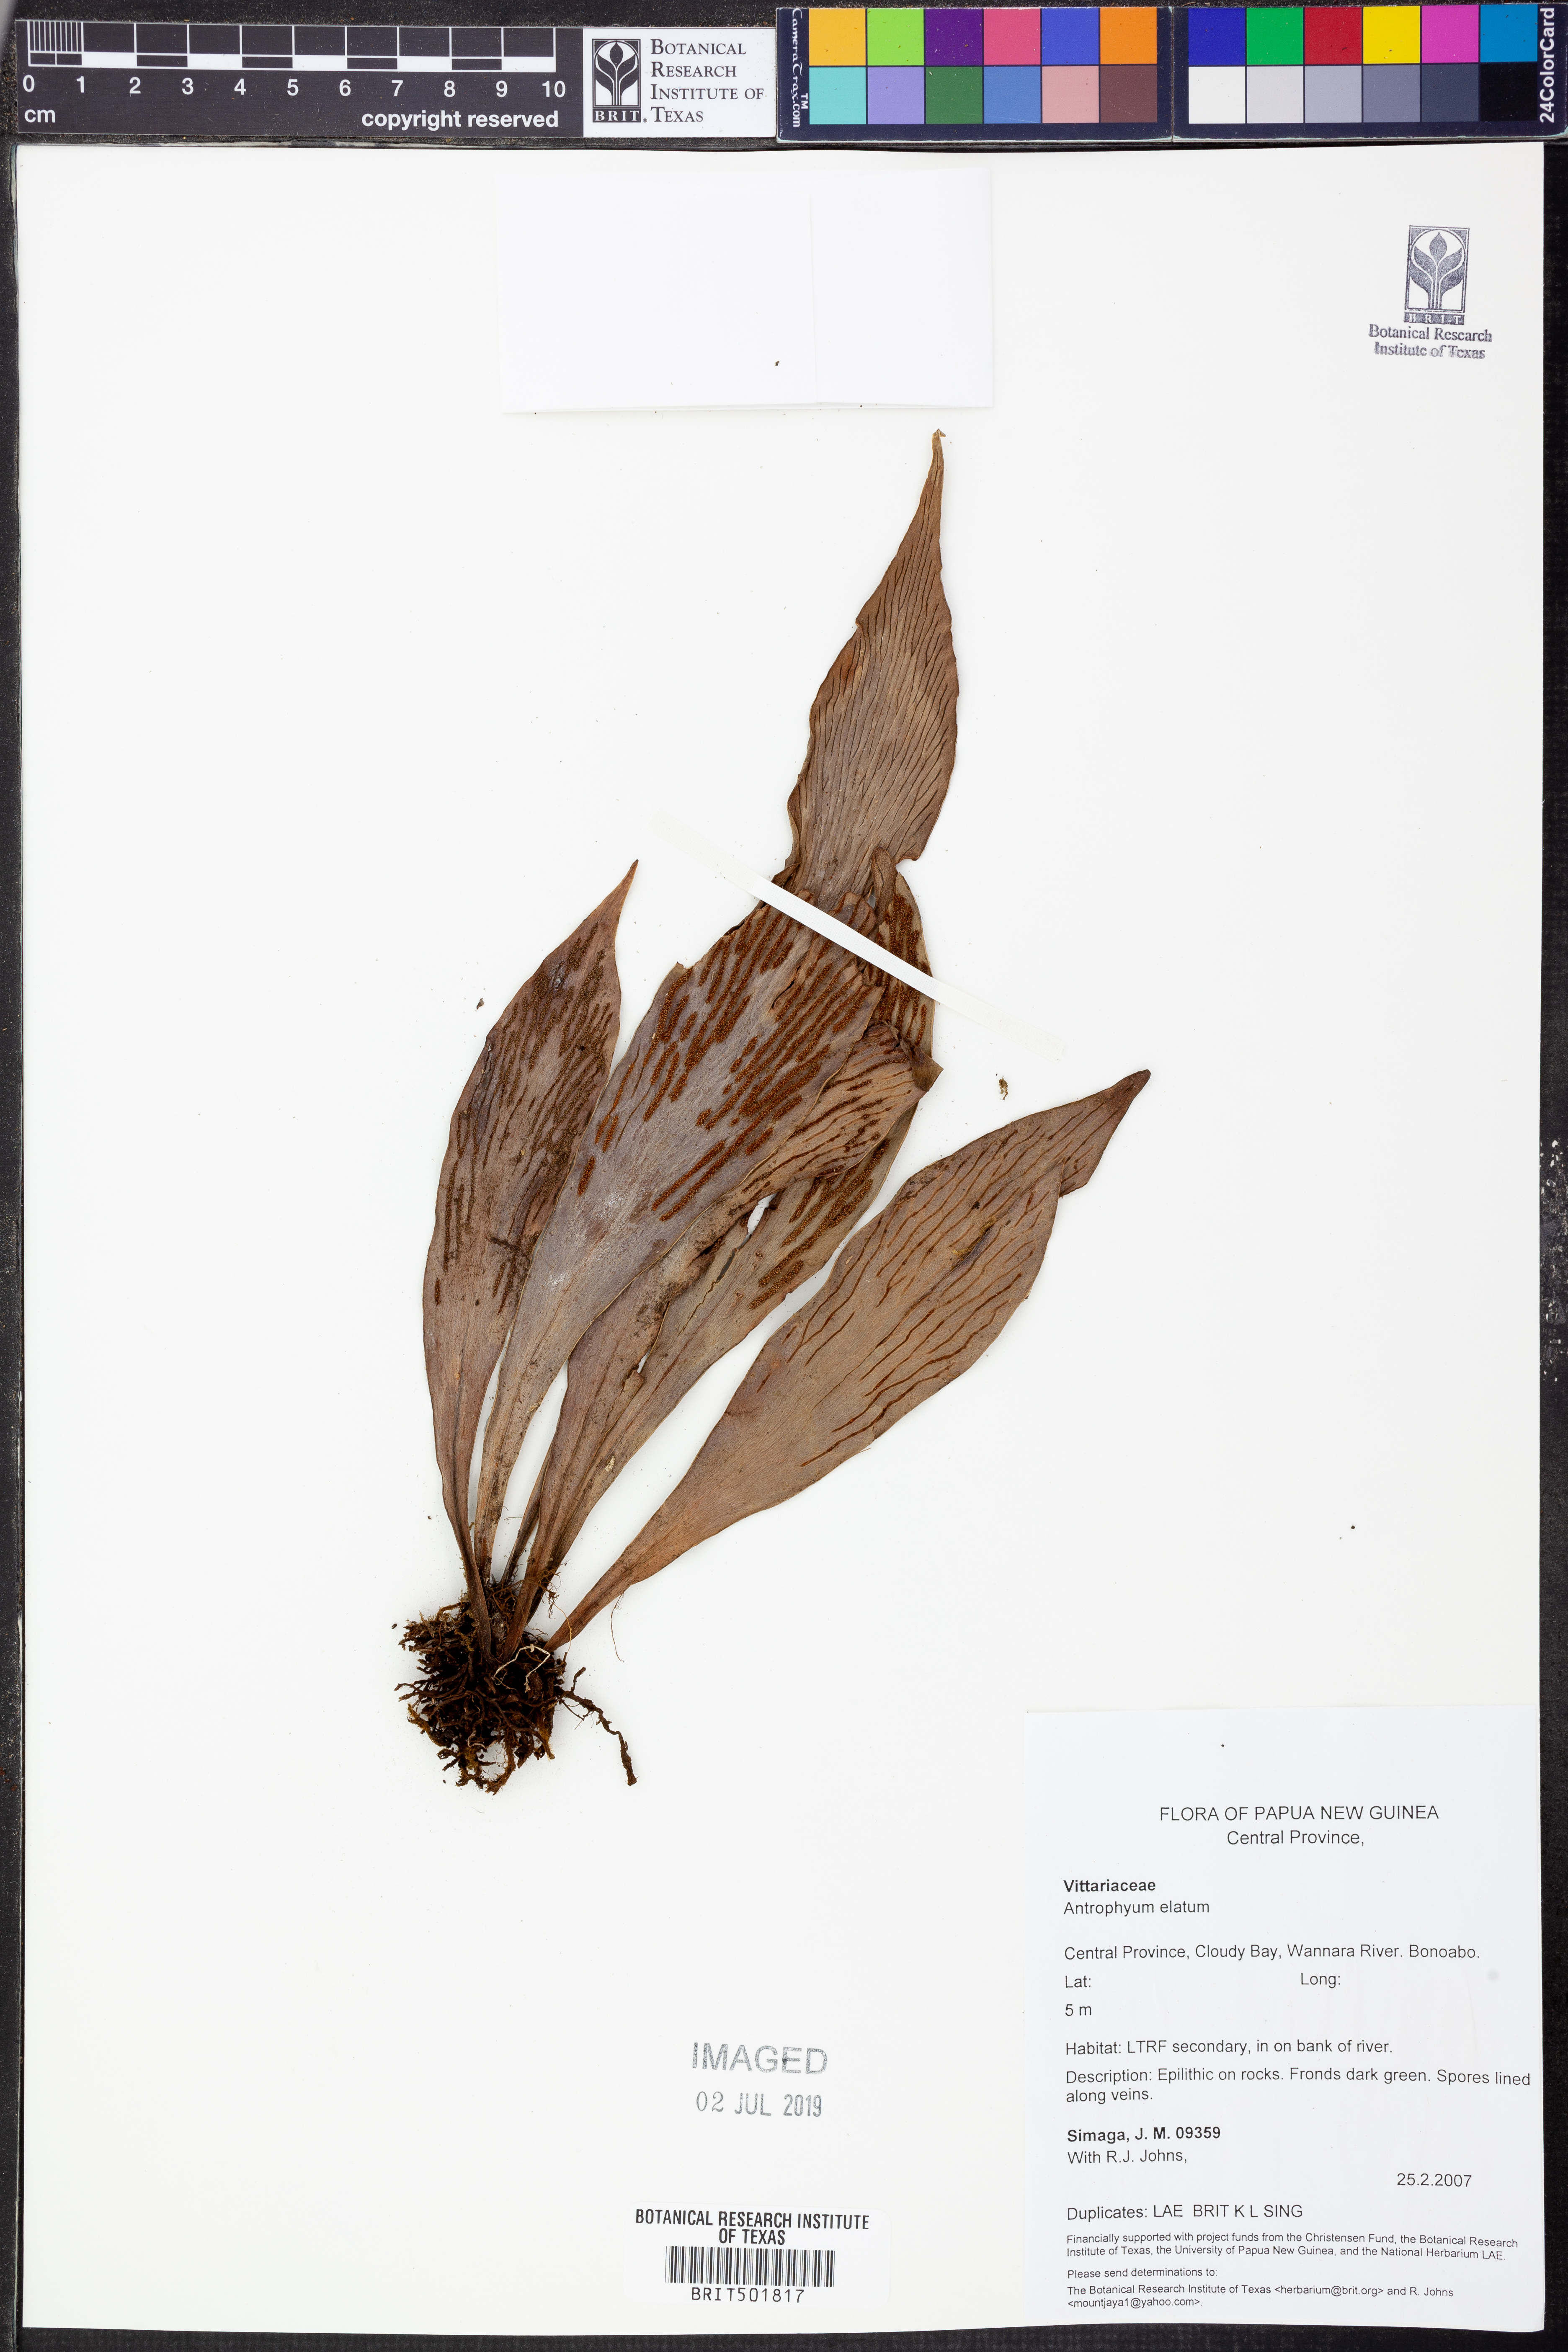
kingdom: Plantae
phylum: Tracheophyta
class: Polypodiopsida
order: Polypodiales
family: Pteridaceae
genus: Antrophyum
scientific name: Antrophyum callifolium
